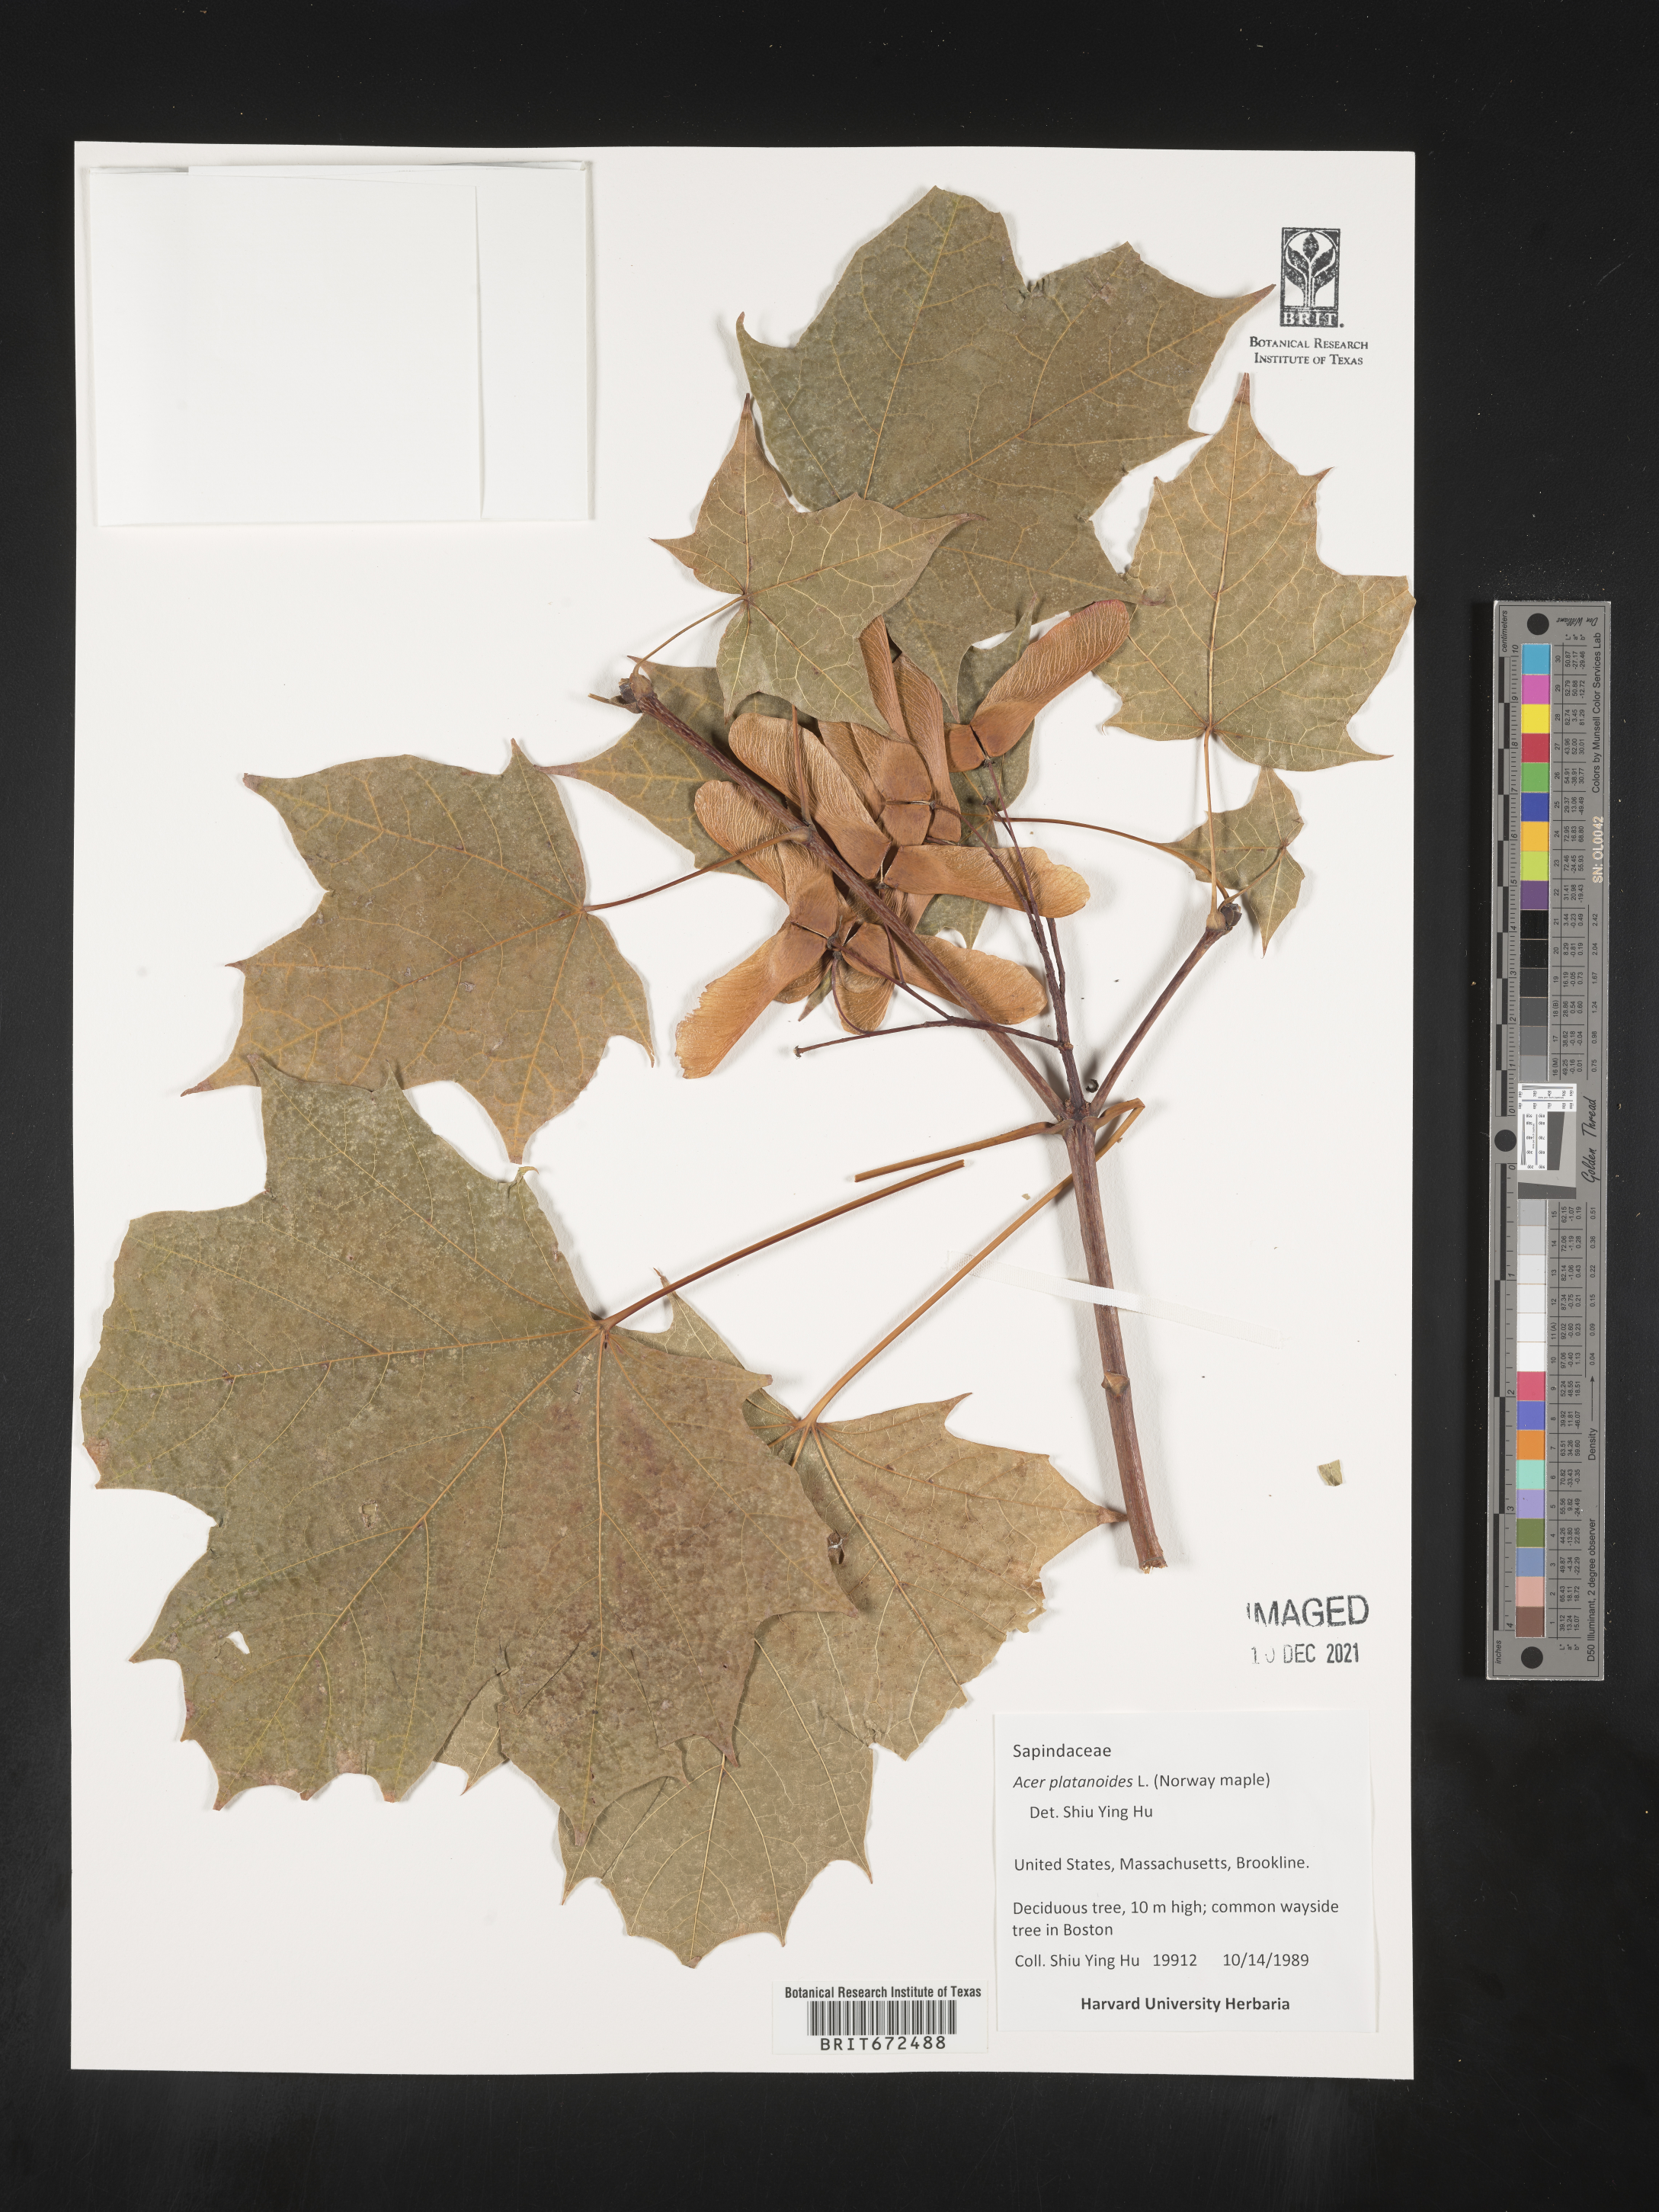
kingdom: Plantae
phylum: Tracheophyta
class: Magnoliopsida
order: Sapindales
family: Sapindaceae
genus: Acer
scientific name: Acer
